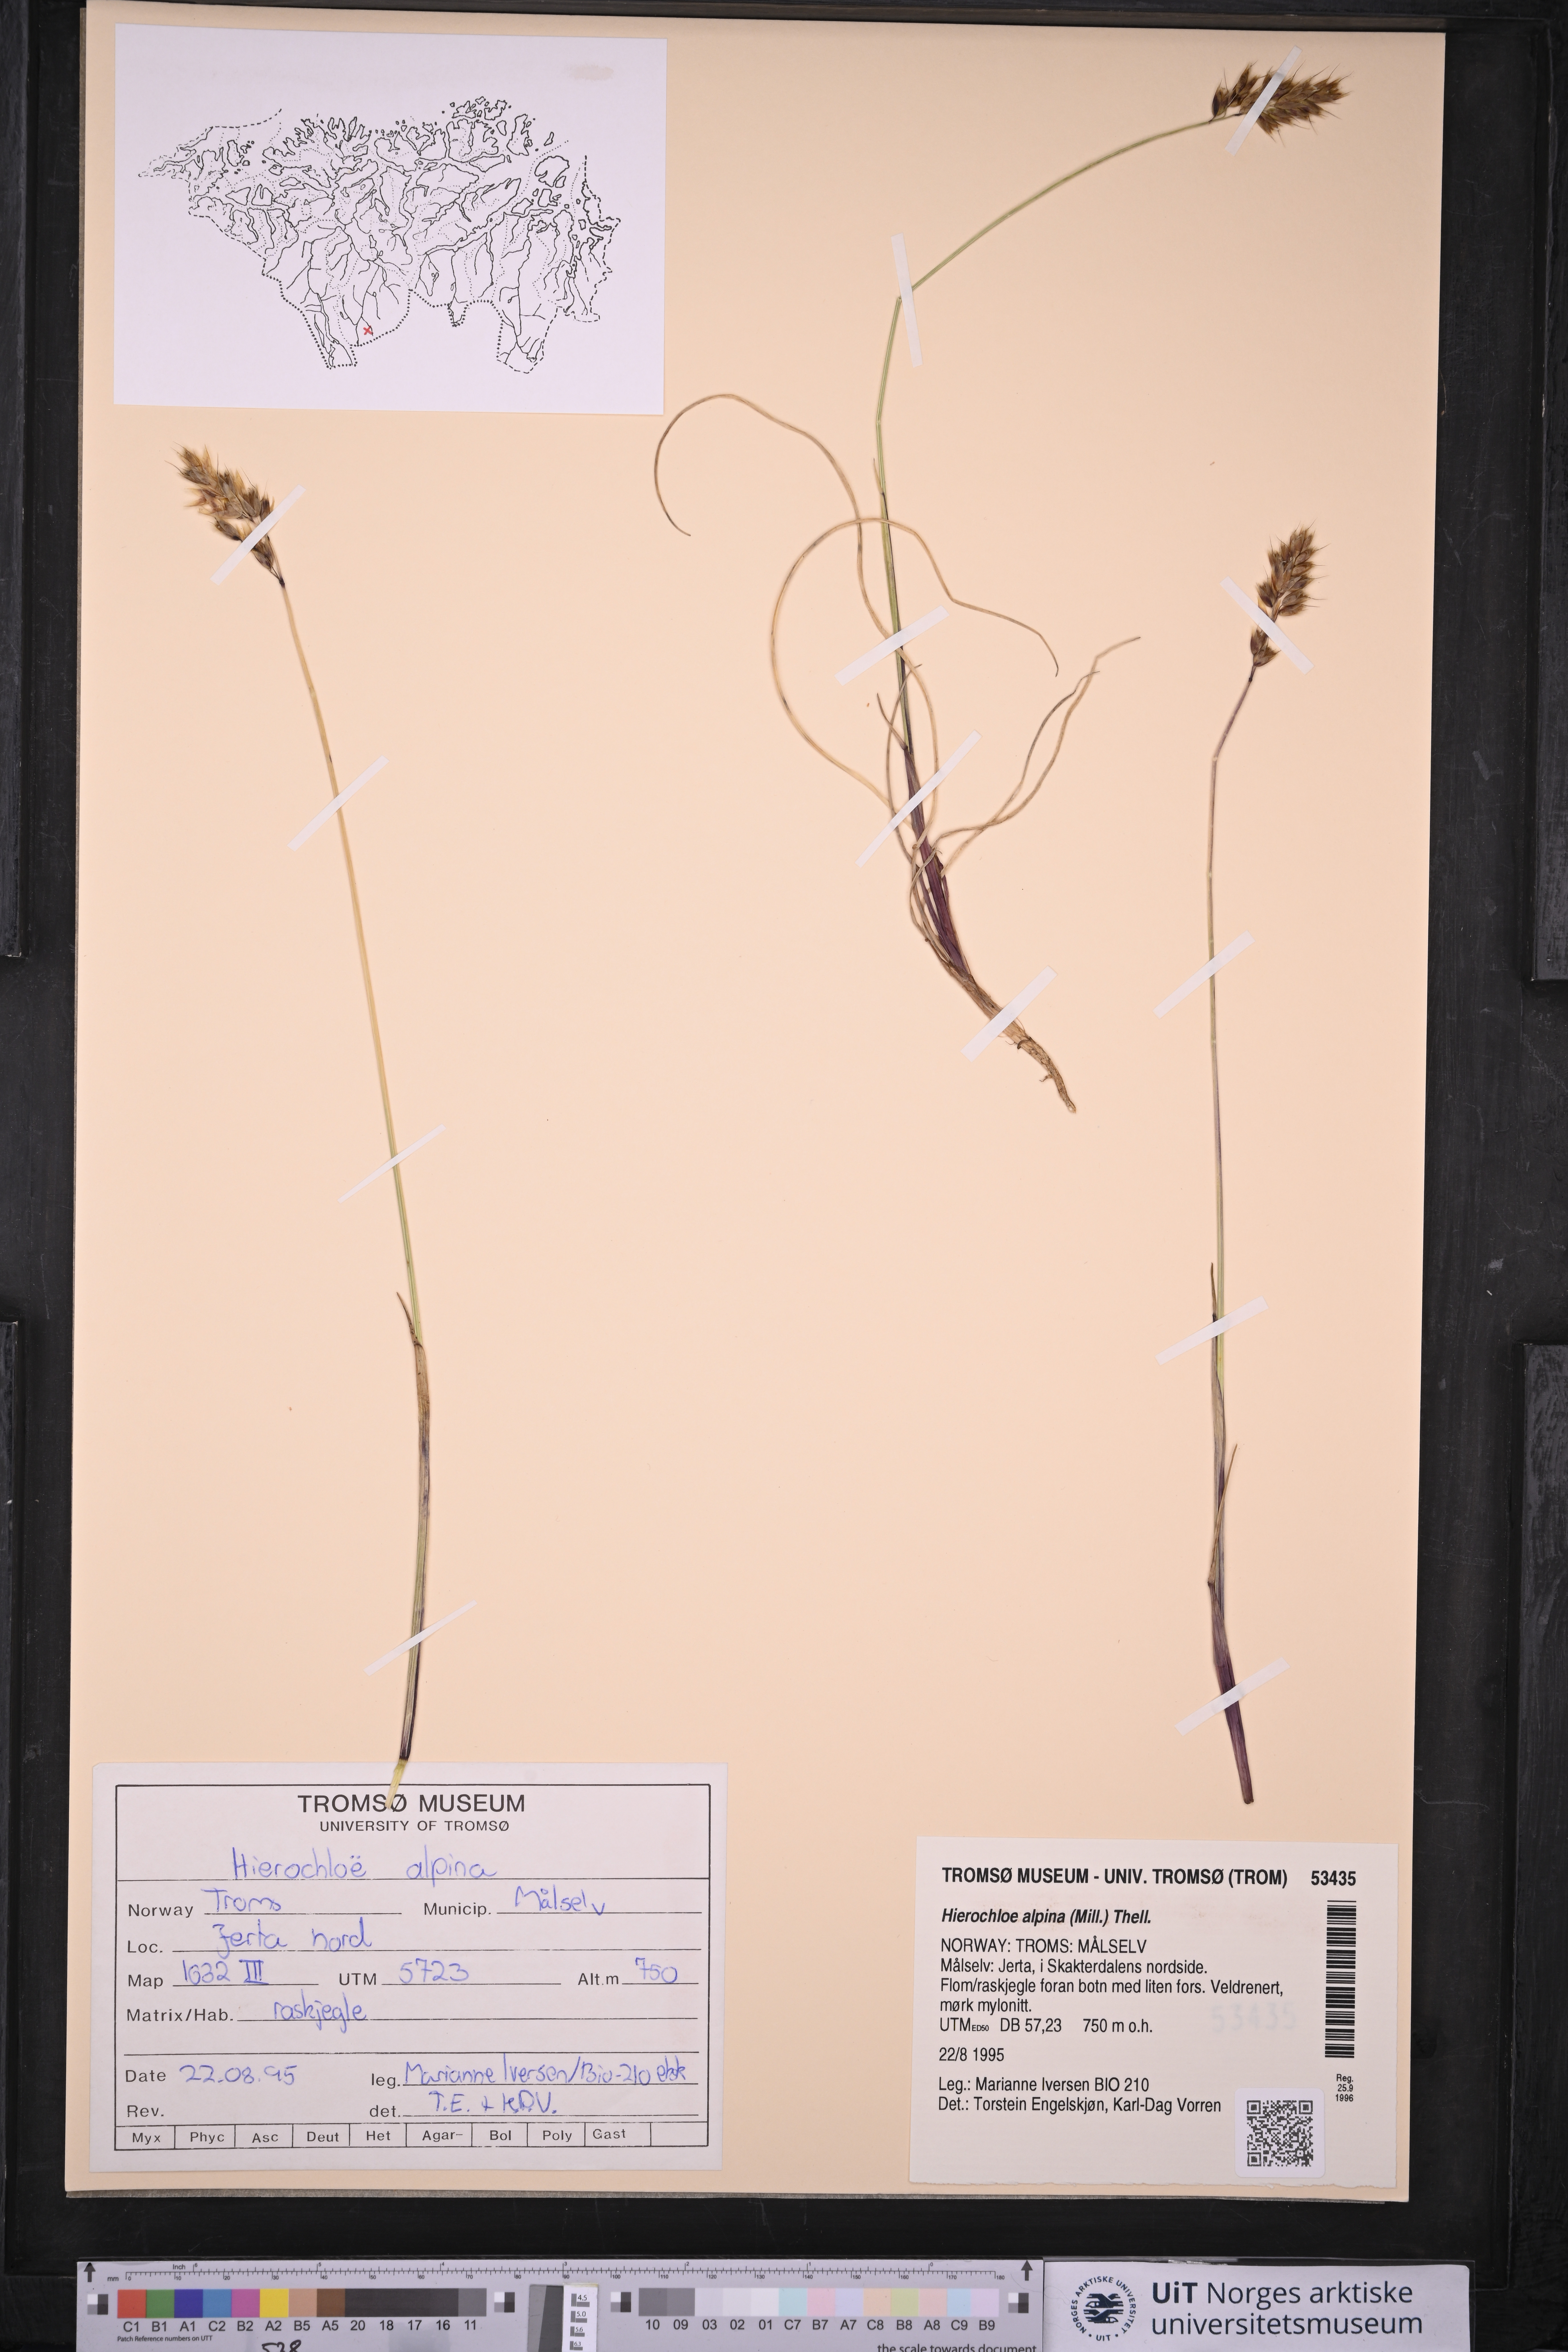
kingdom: Plantae
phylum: Tracheophyta
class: Liliopsida
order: Poales
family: Poaceae
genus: Anthoxanthum
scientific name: Anthoxanthum monticola
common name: Alpine sweetgrass
